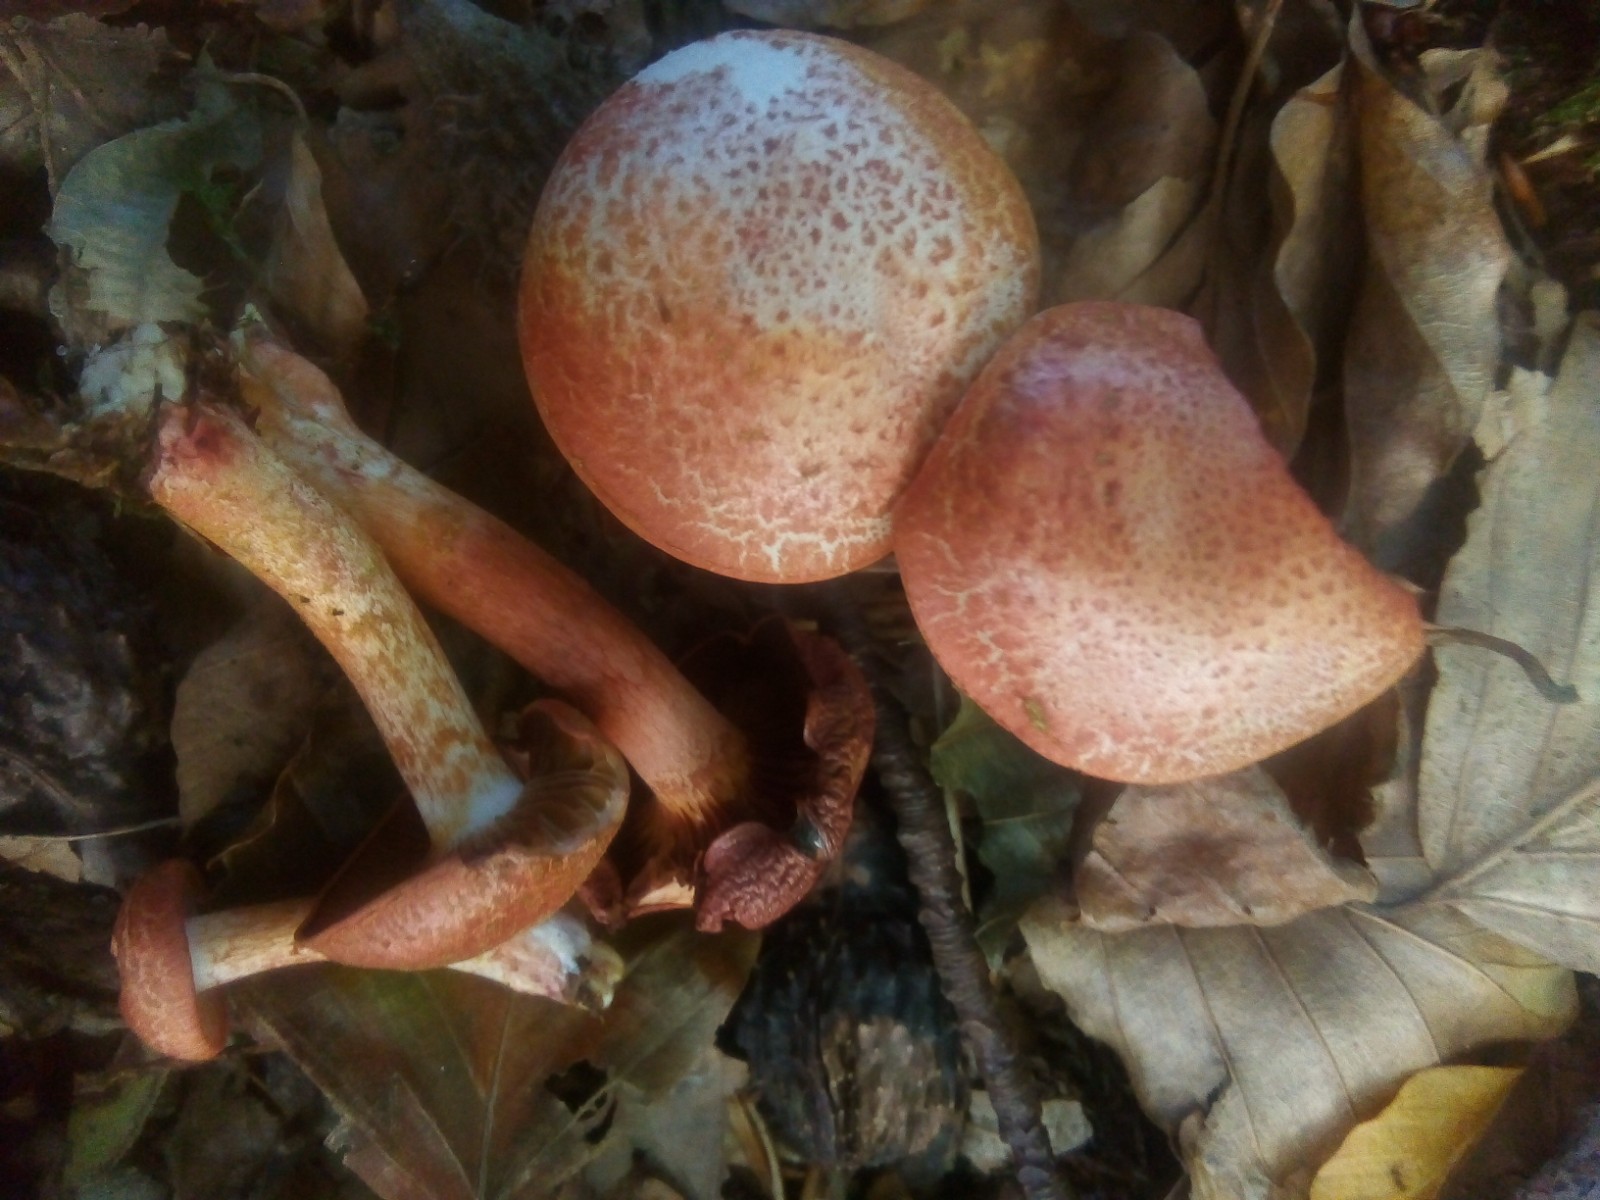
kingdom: Fungi
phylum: Basidiomycota
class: Agaricomycetes
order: Agaricales
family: Cortinariaceae
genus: Cortinarius
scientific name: Cortinarius bolaris
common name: cinnoberskællet slørhat
